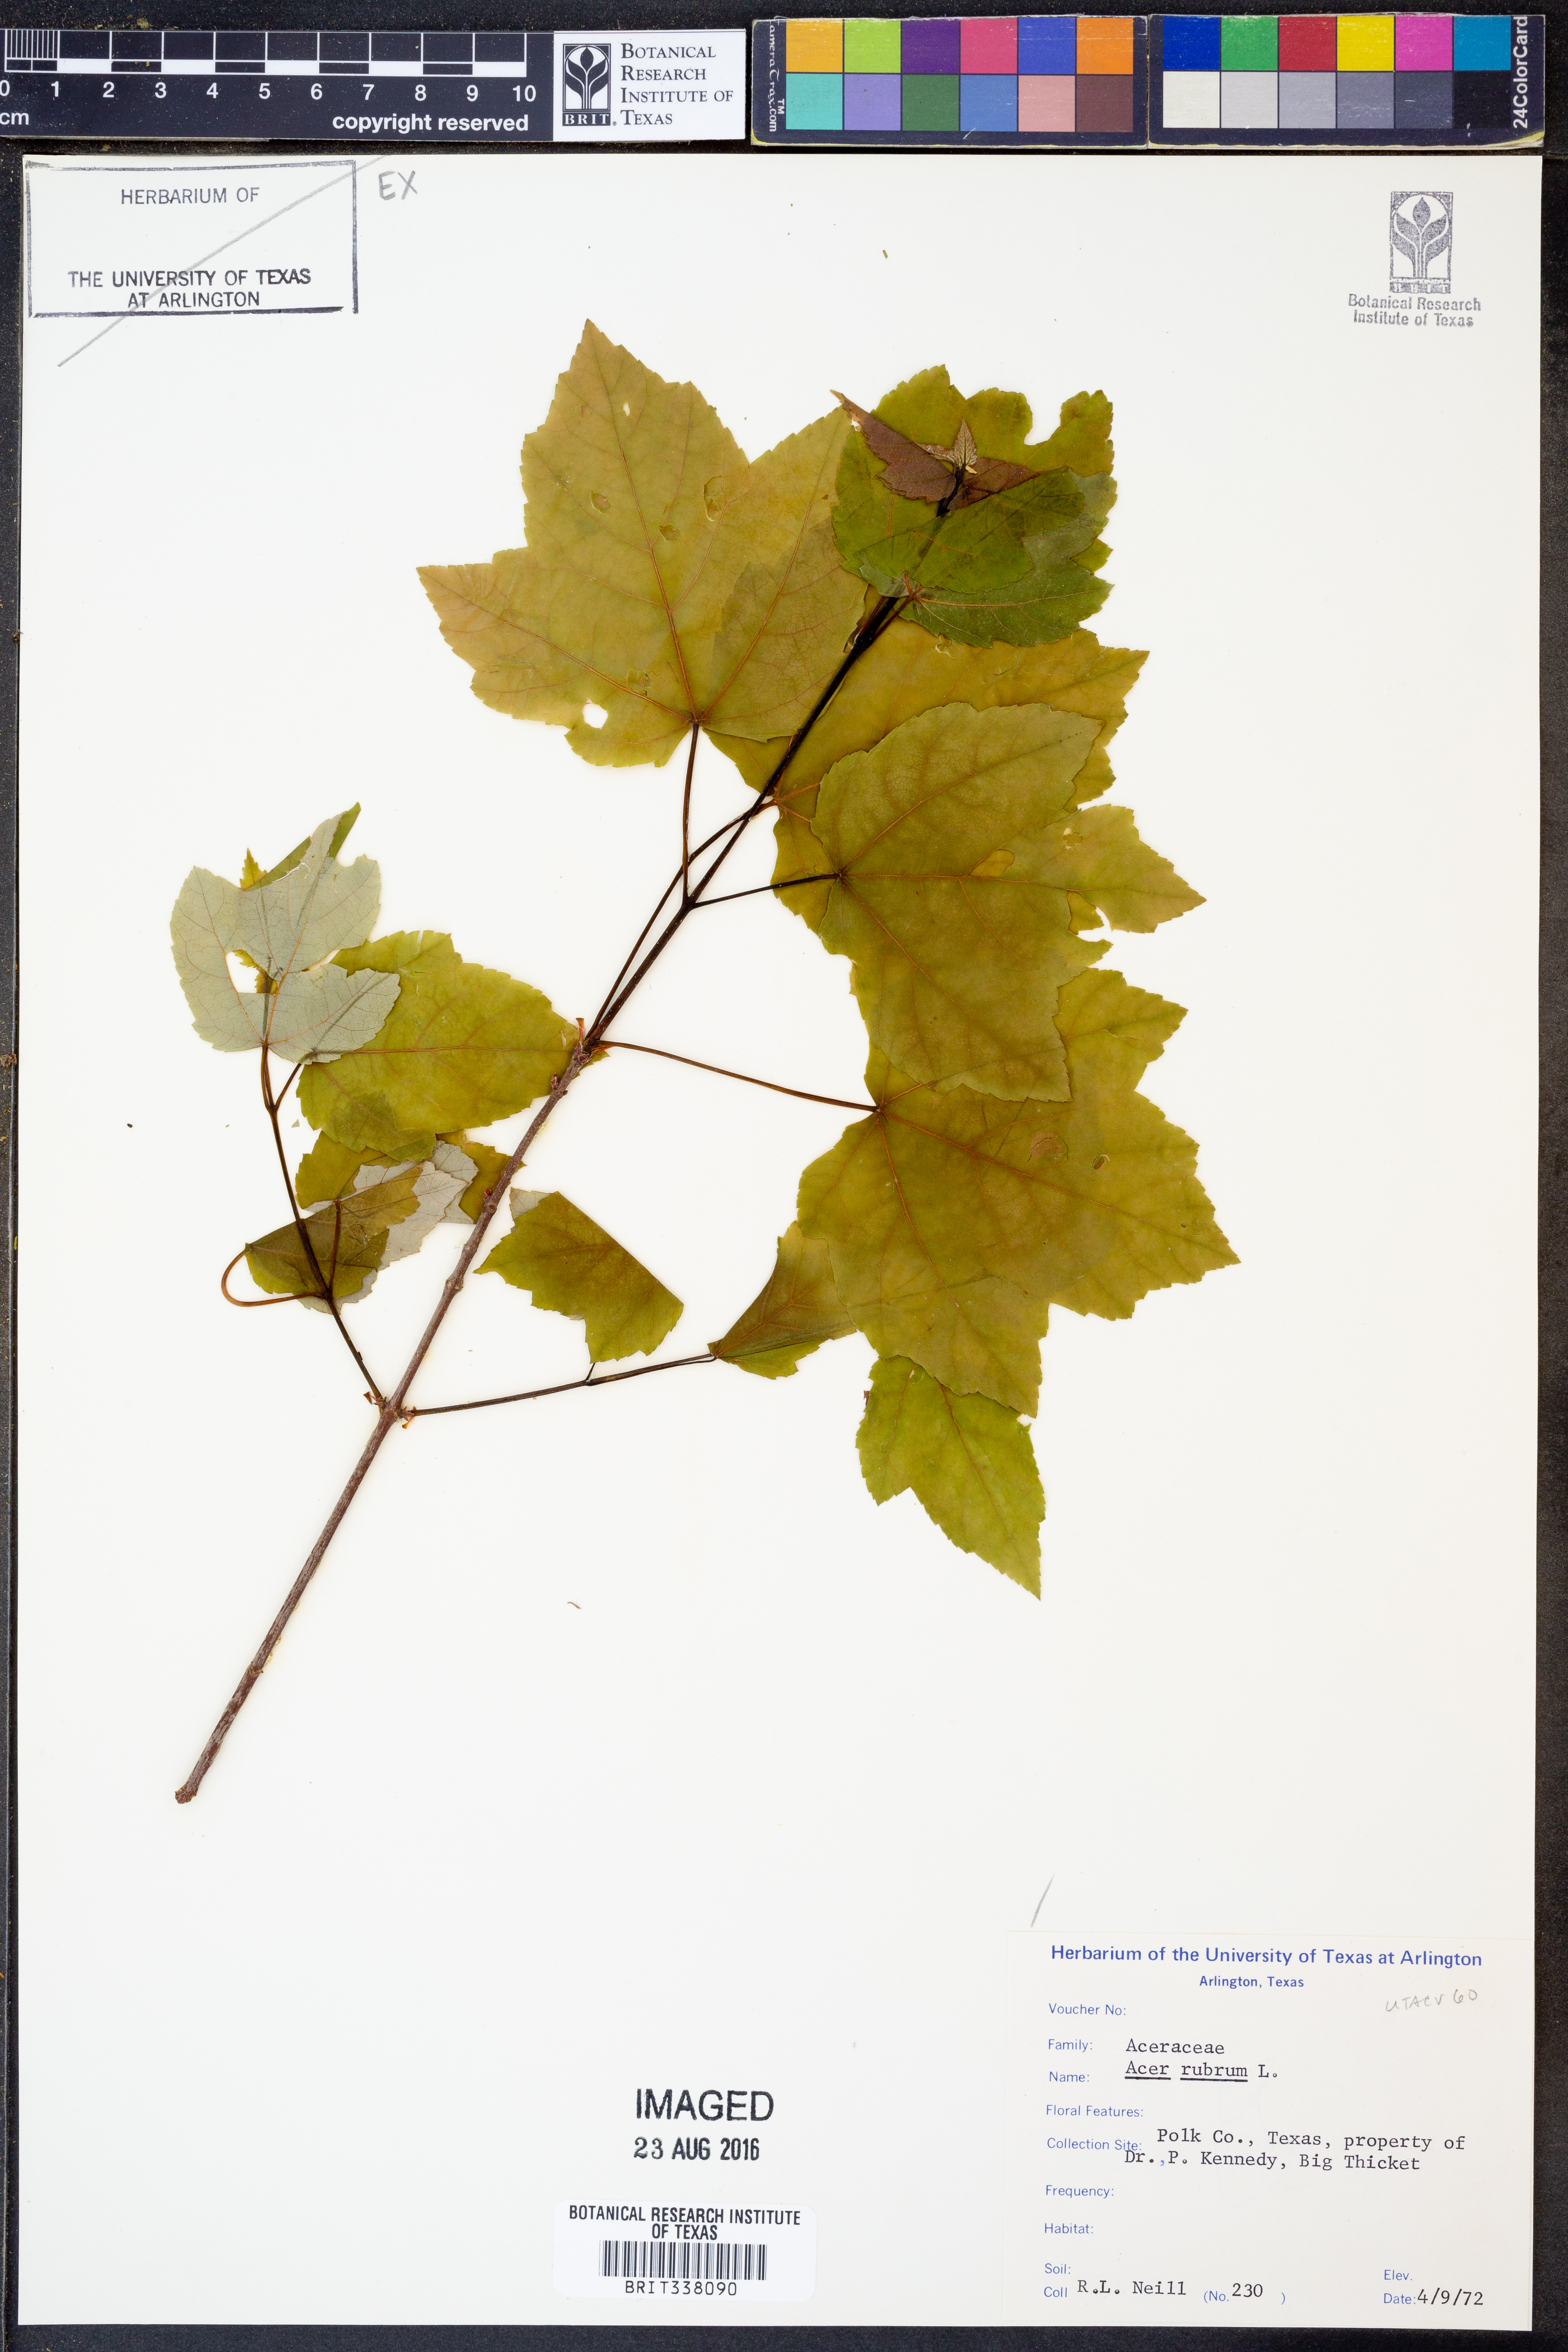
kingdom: Plantae
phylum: Tracheophyta
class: Magnoliopsida
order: Sapindales
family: Sapindaceae
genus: Acer
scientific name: Acer rubrum
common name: Red maple
